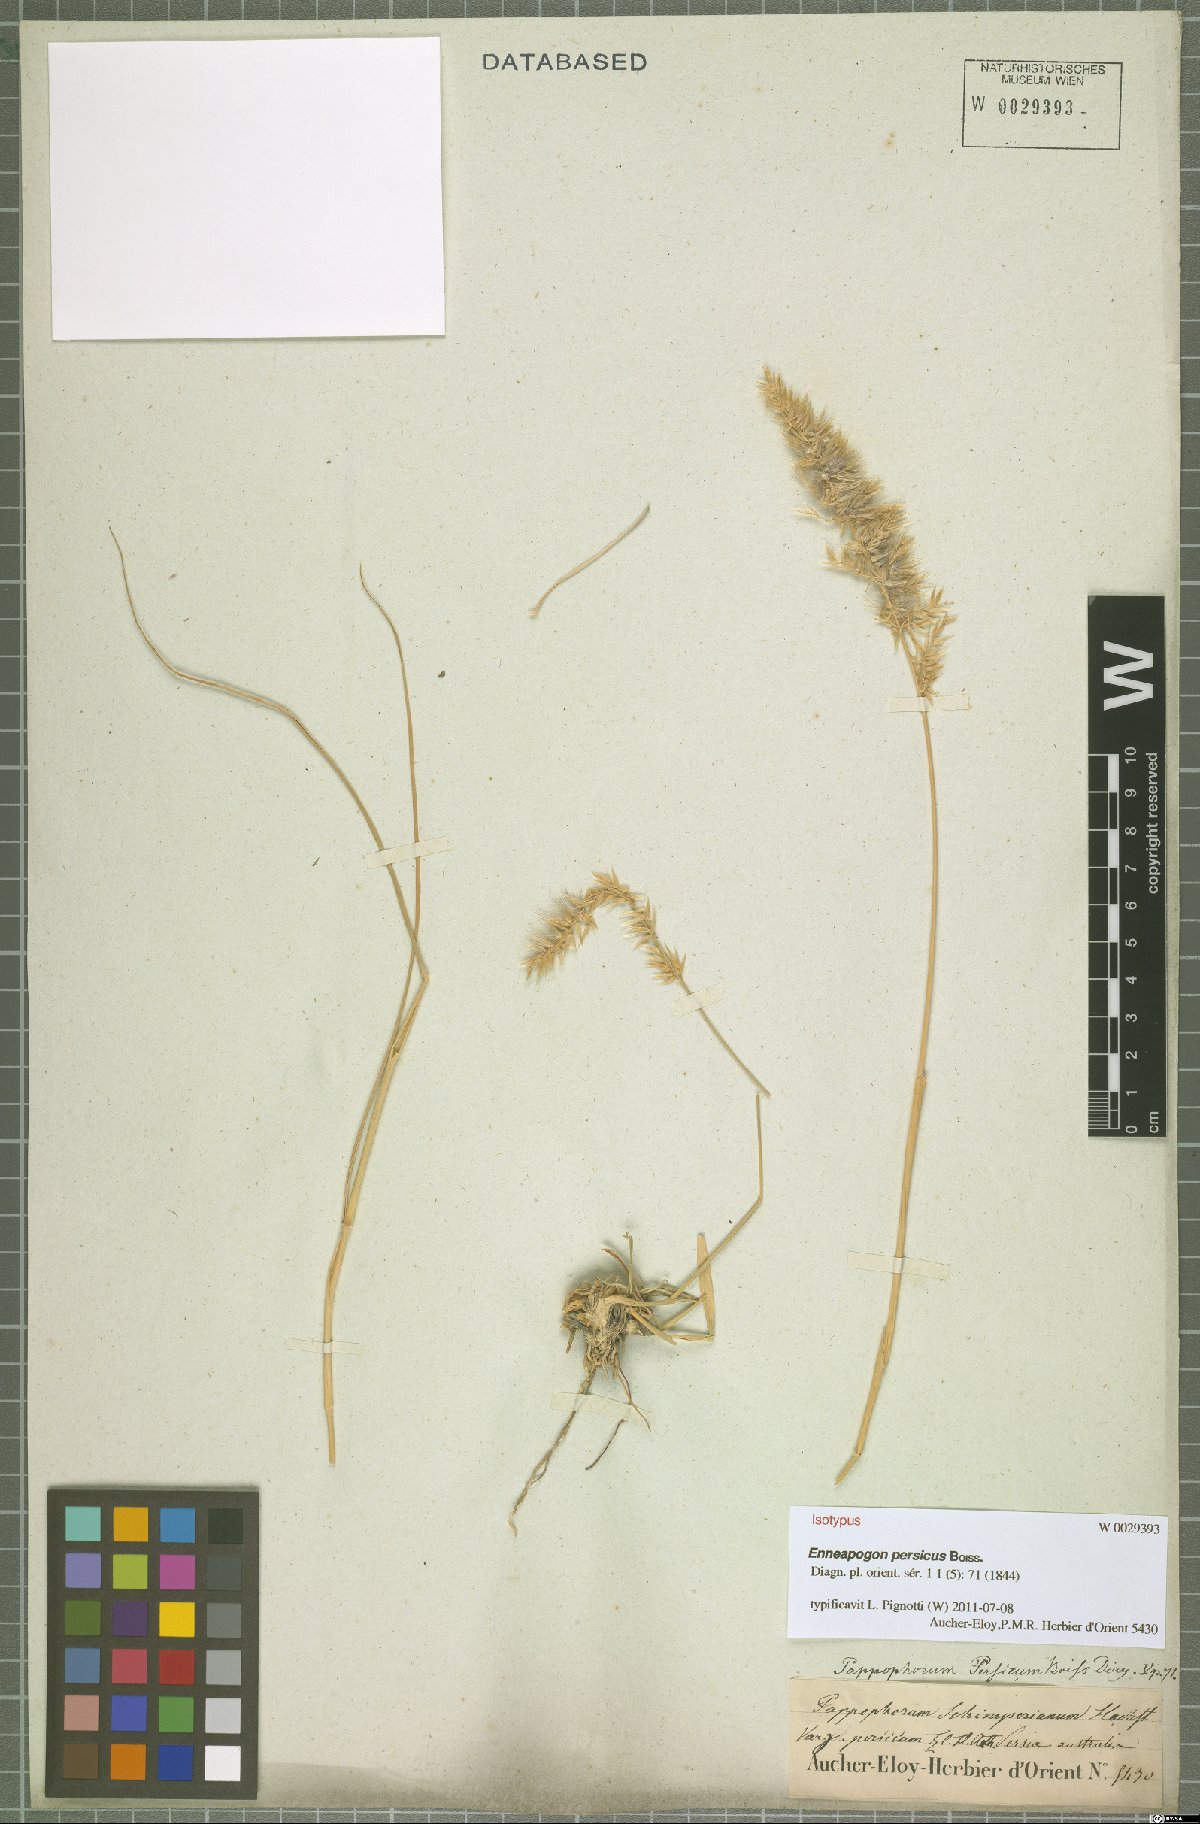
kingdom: Plantae
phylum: Tracheophyta
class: Liliopsida
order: Poales
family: Poaceae
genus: Enneapogon
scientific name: Enneapogon persicus
